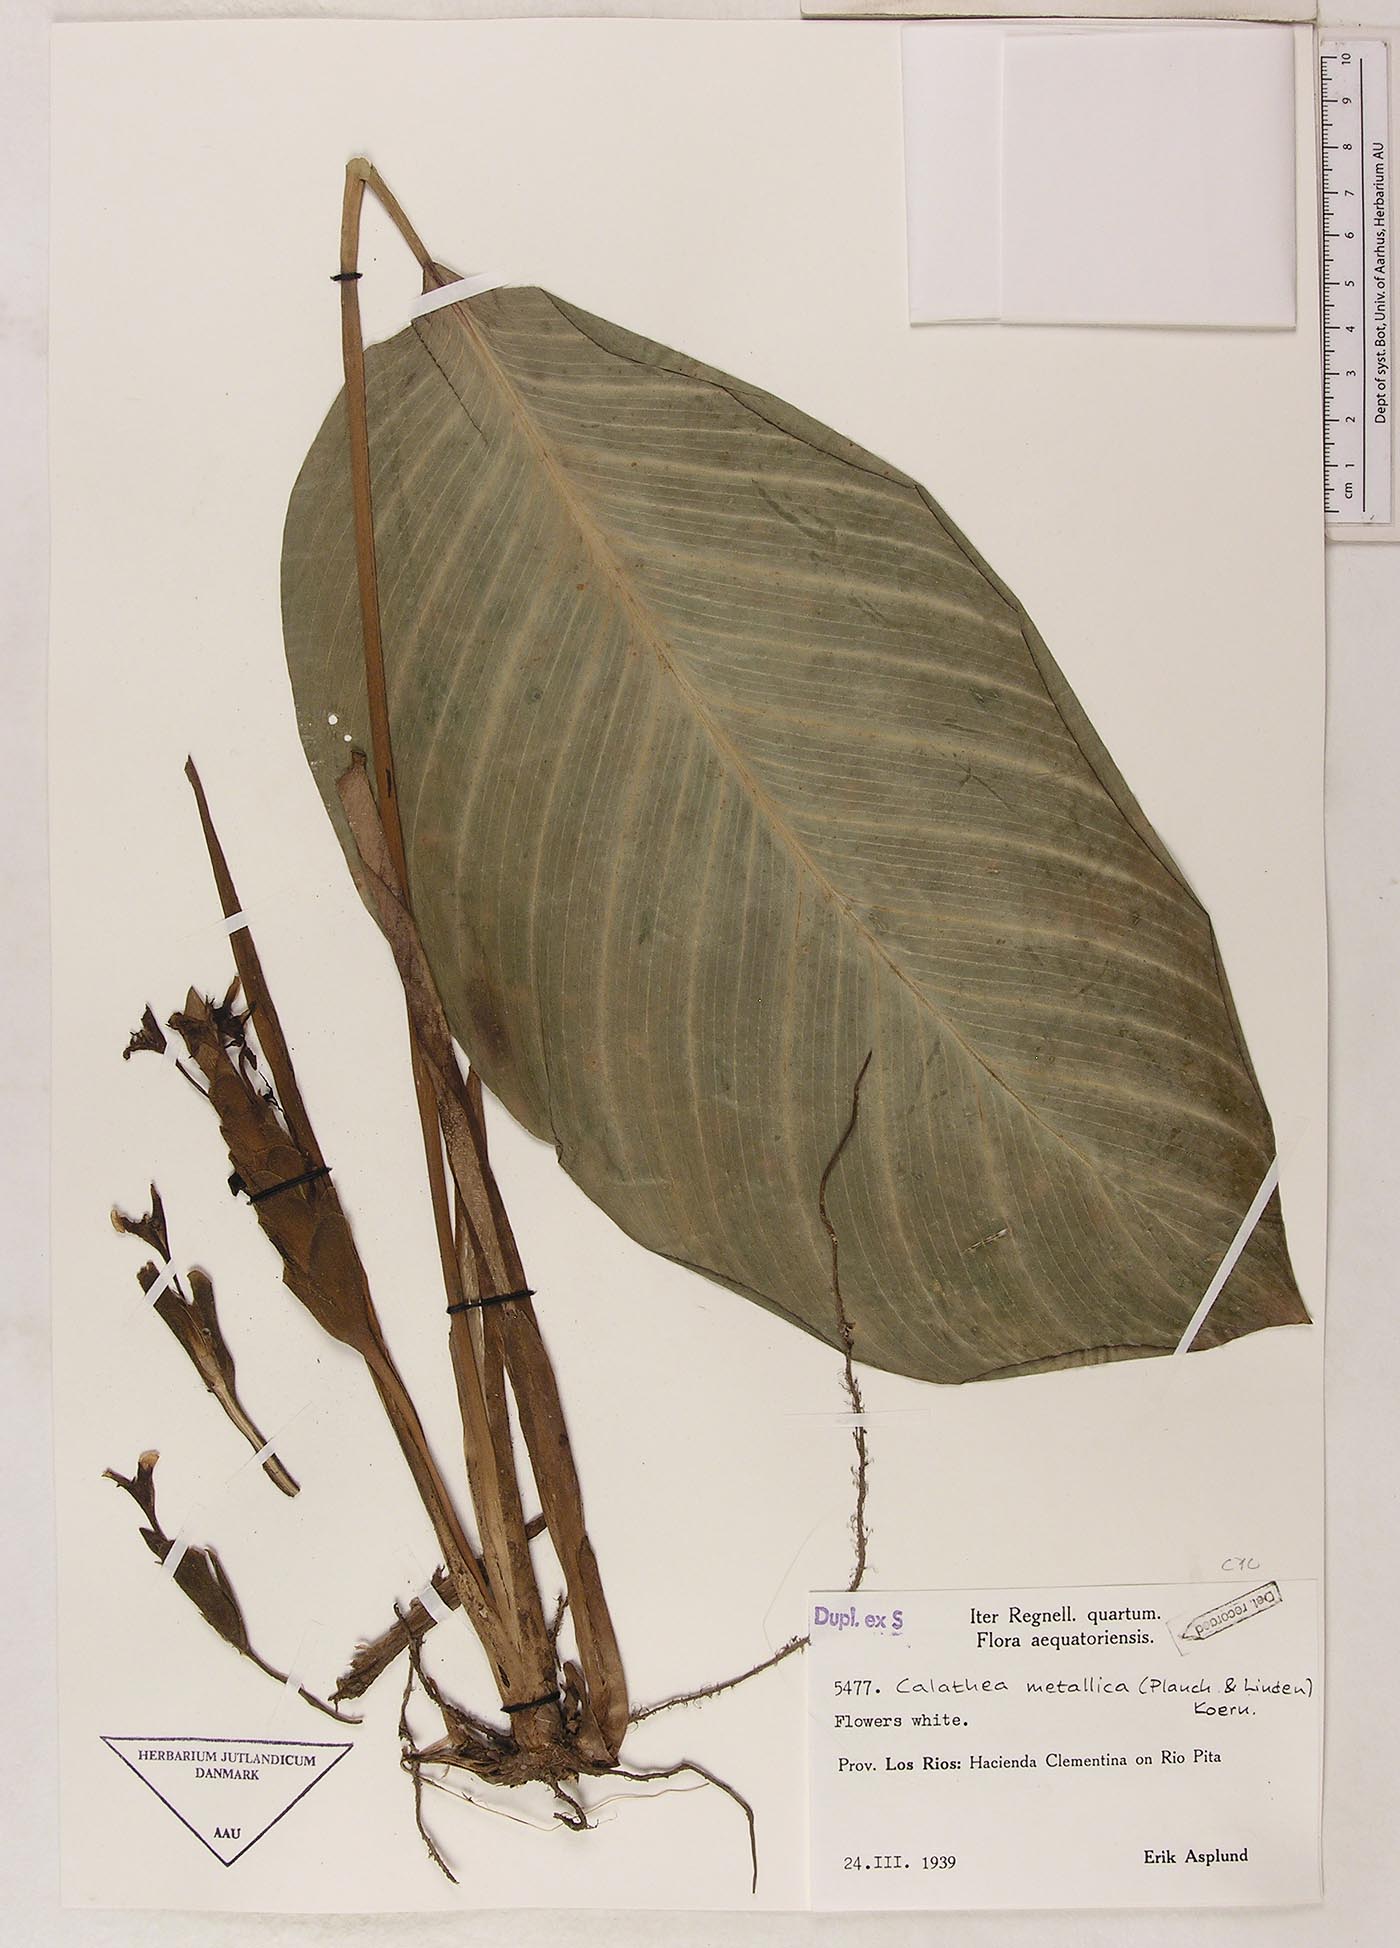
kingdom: Plantae
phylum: Tracheophyta
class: Liliopsida
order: Zingiberales
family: Marantaceae
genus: Goeppertia
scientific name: Goeppertia metallica
